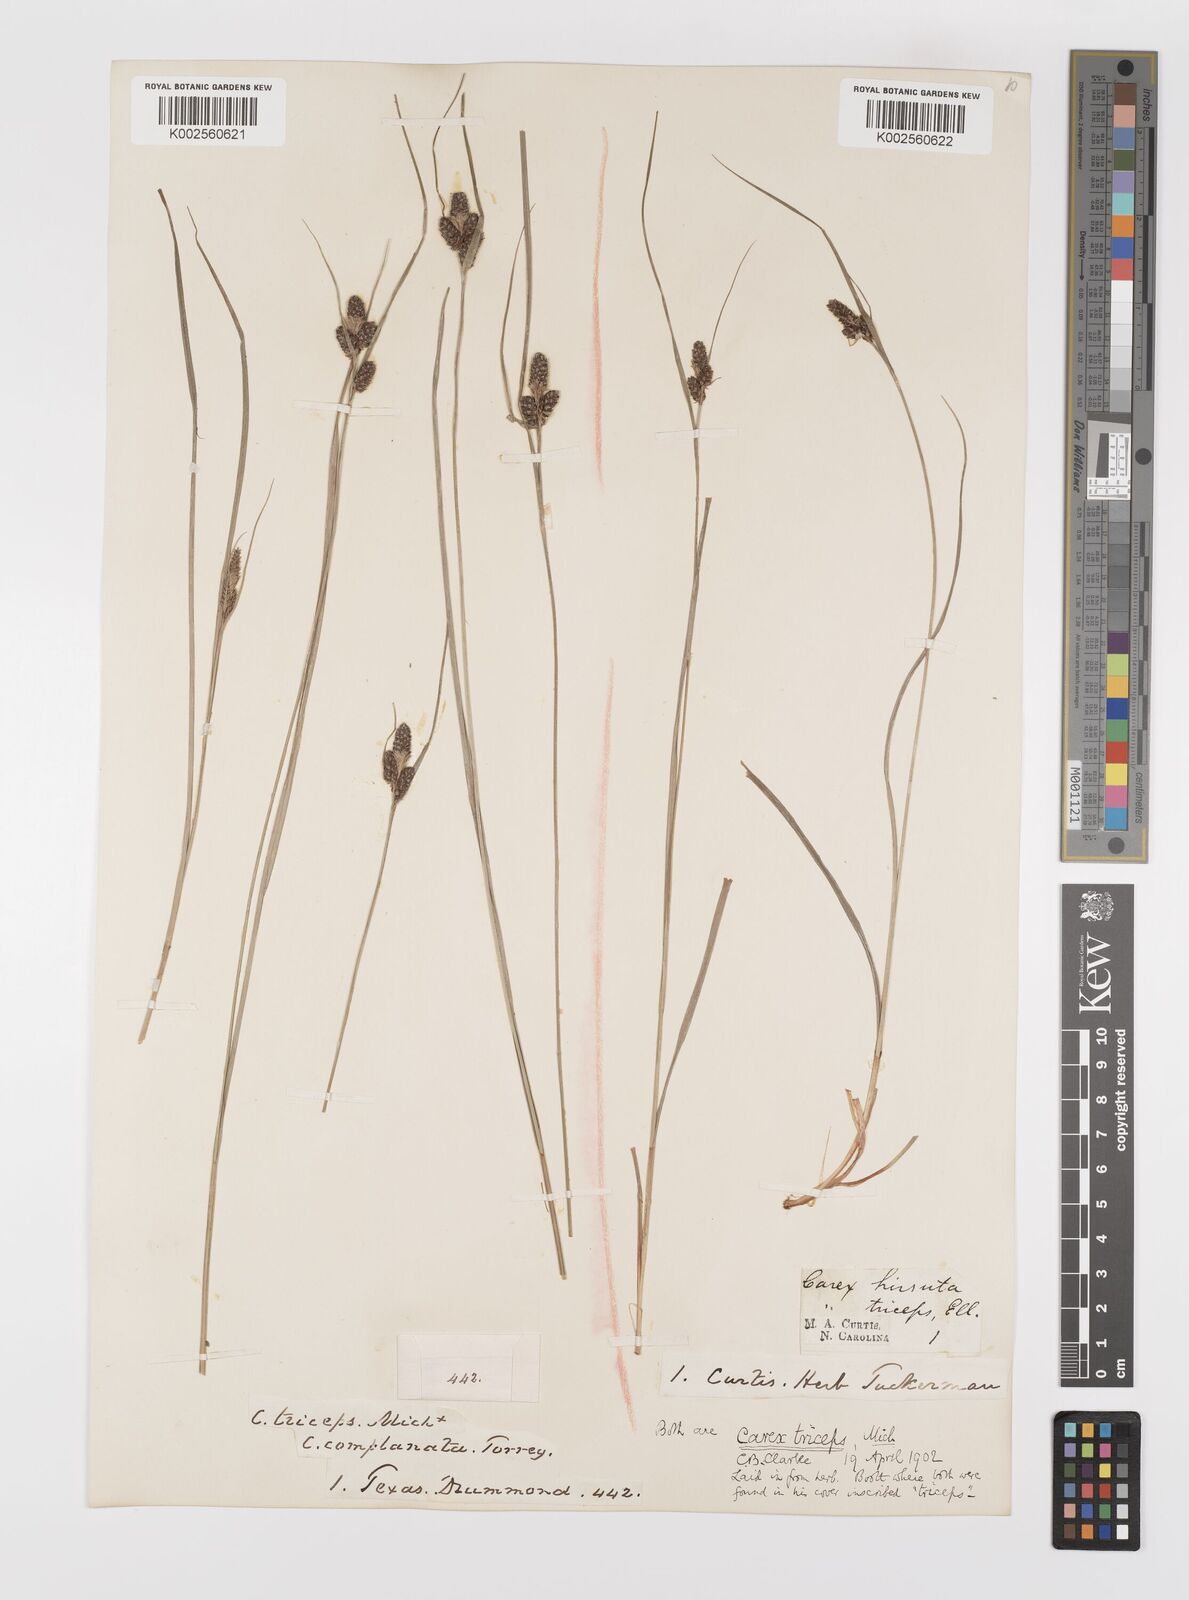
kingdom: Plantae
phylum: Tracheophyta
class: Liliopsida
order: Poales
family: Cyperaceae
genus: Carex
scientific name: Carex complanata
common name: Hirsute sedge
